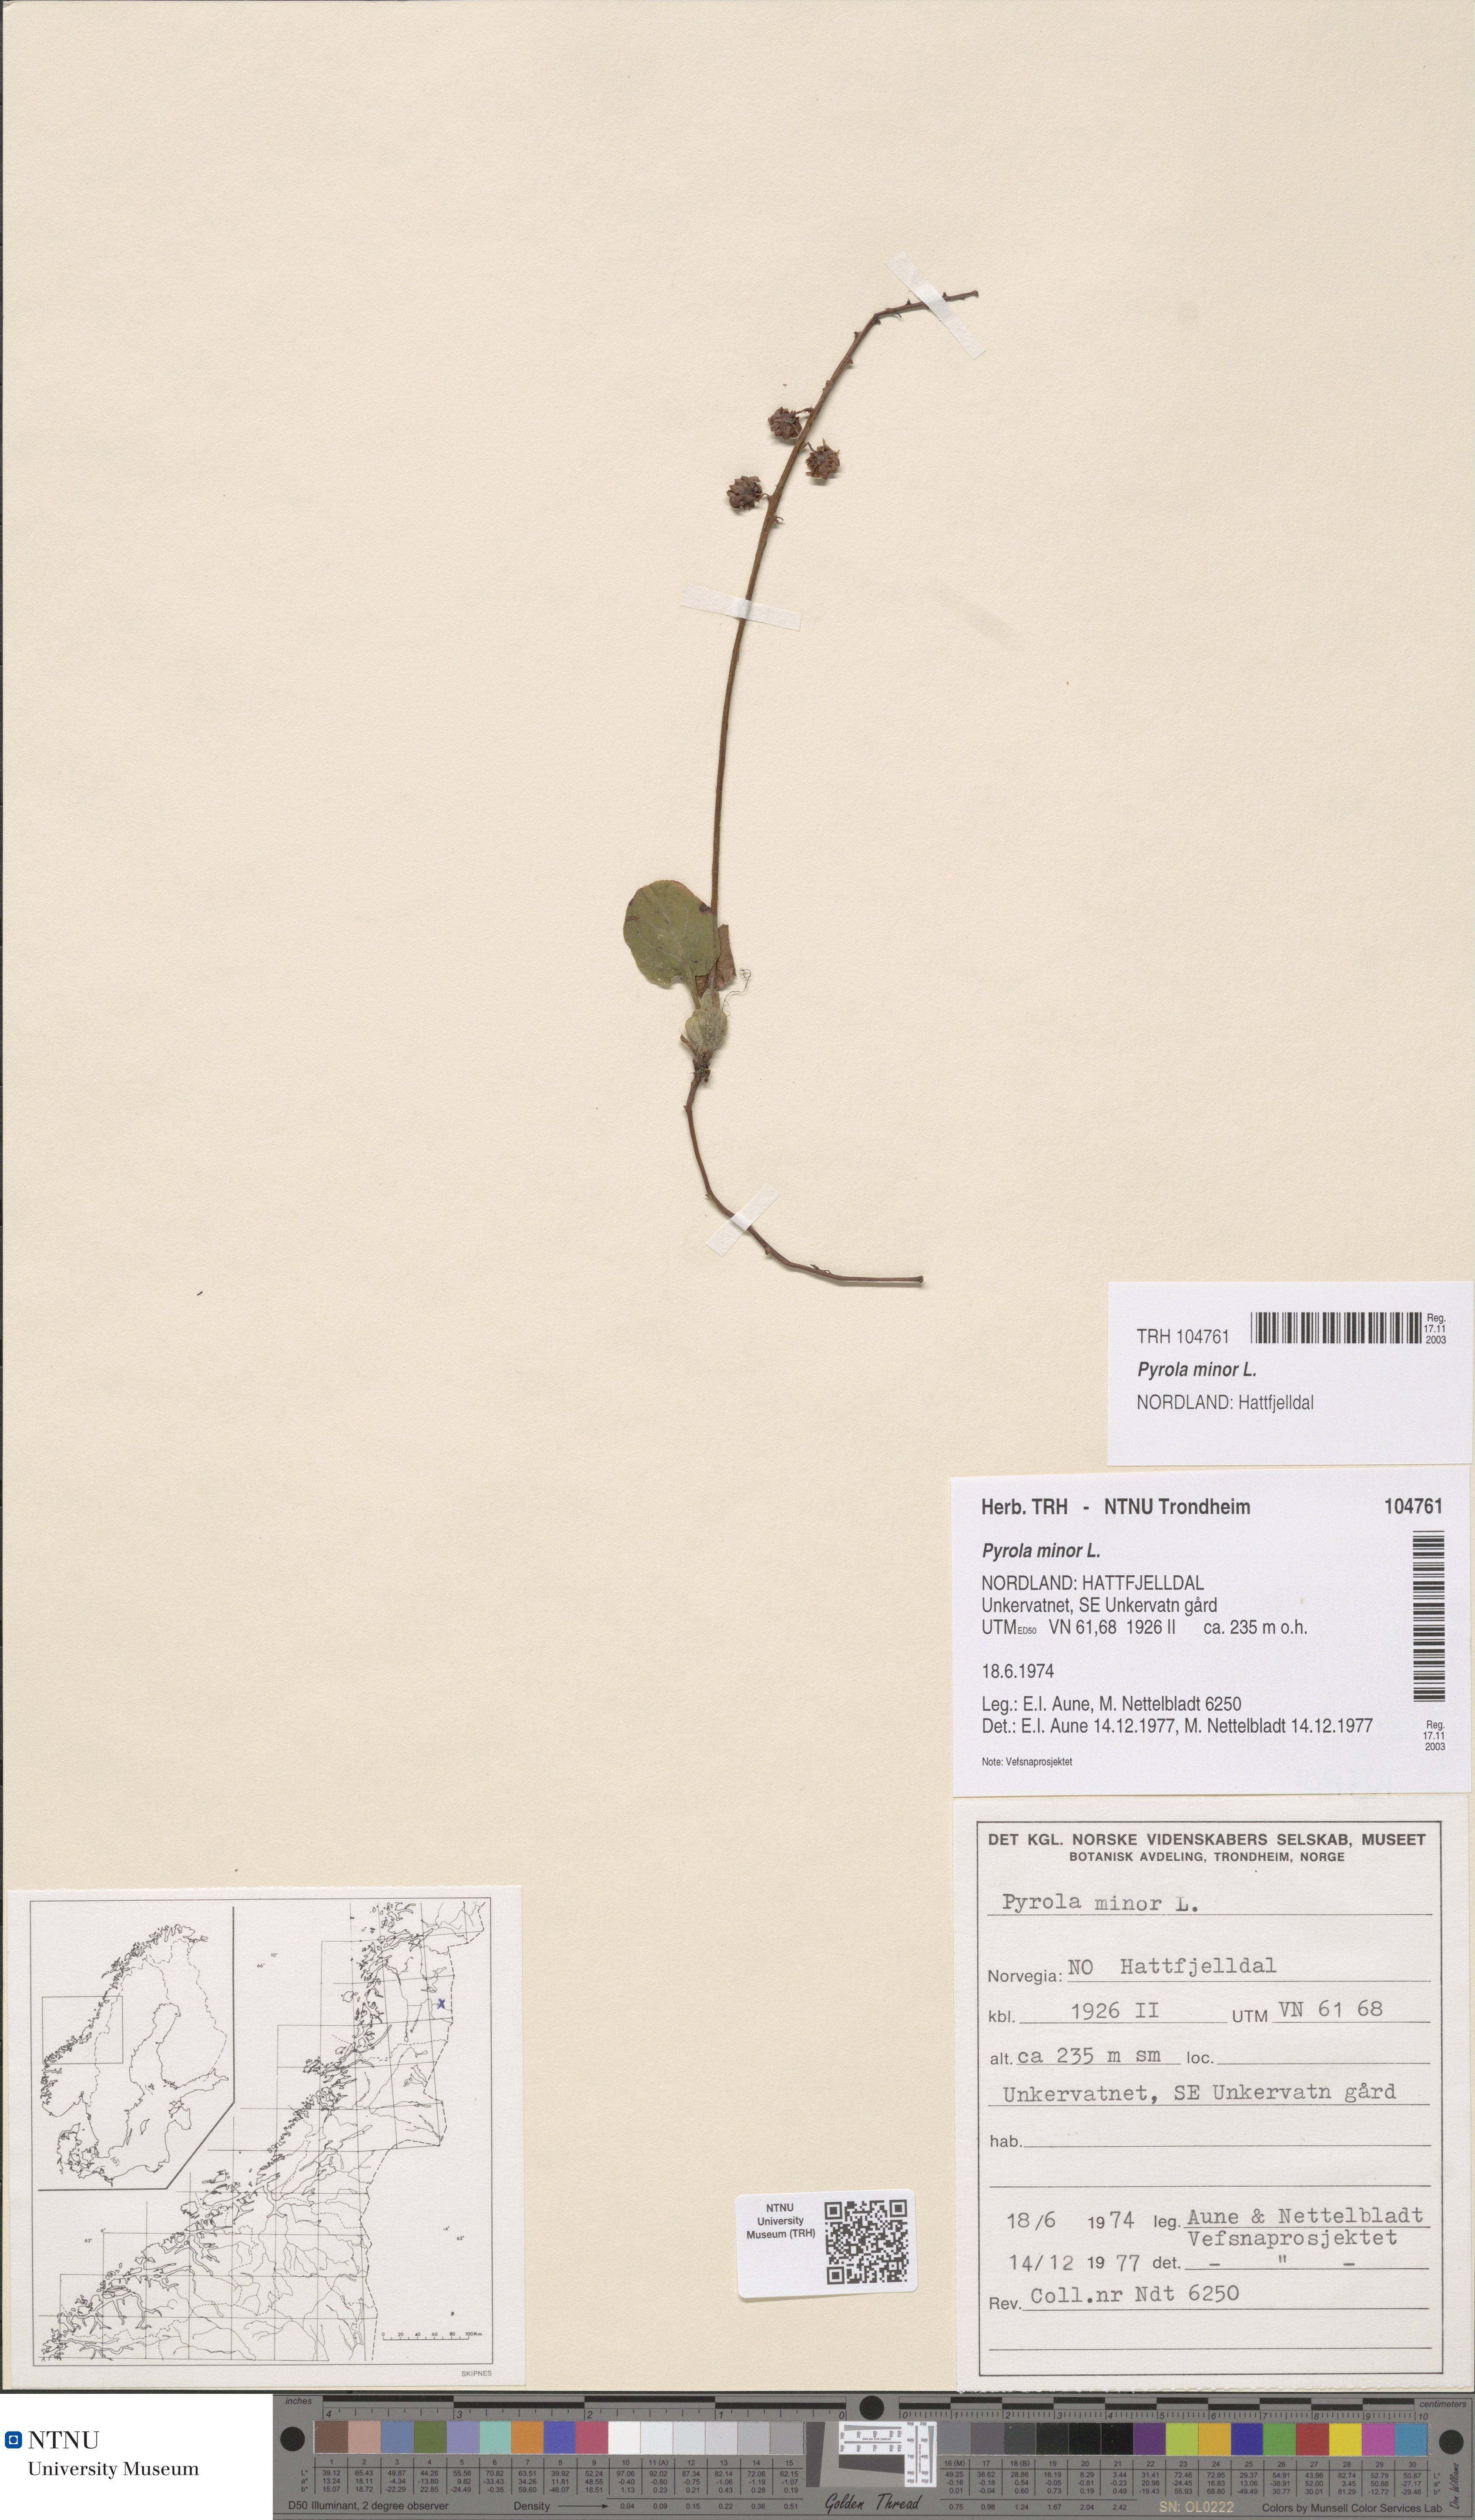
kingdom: Plantae
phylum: Tracheophyta
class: Magnoliopsida
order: Ericales
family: Ericaceae
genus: Pyrola
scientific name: Pyrola minor
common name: Common wintergreen
